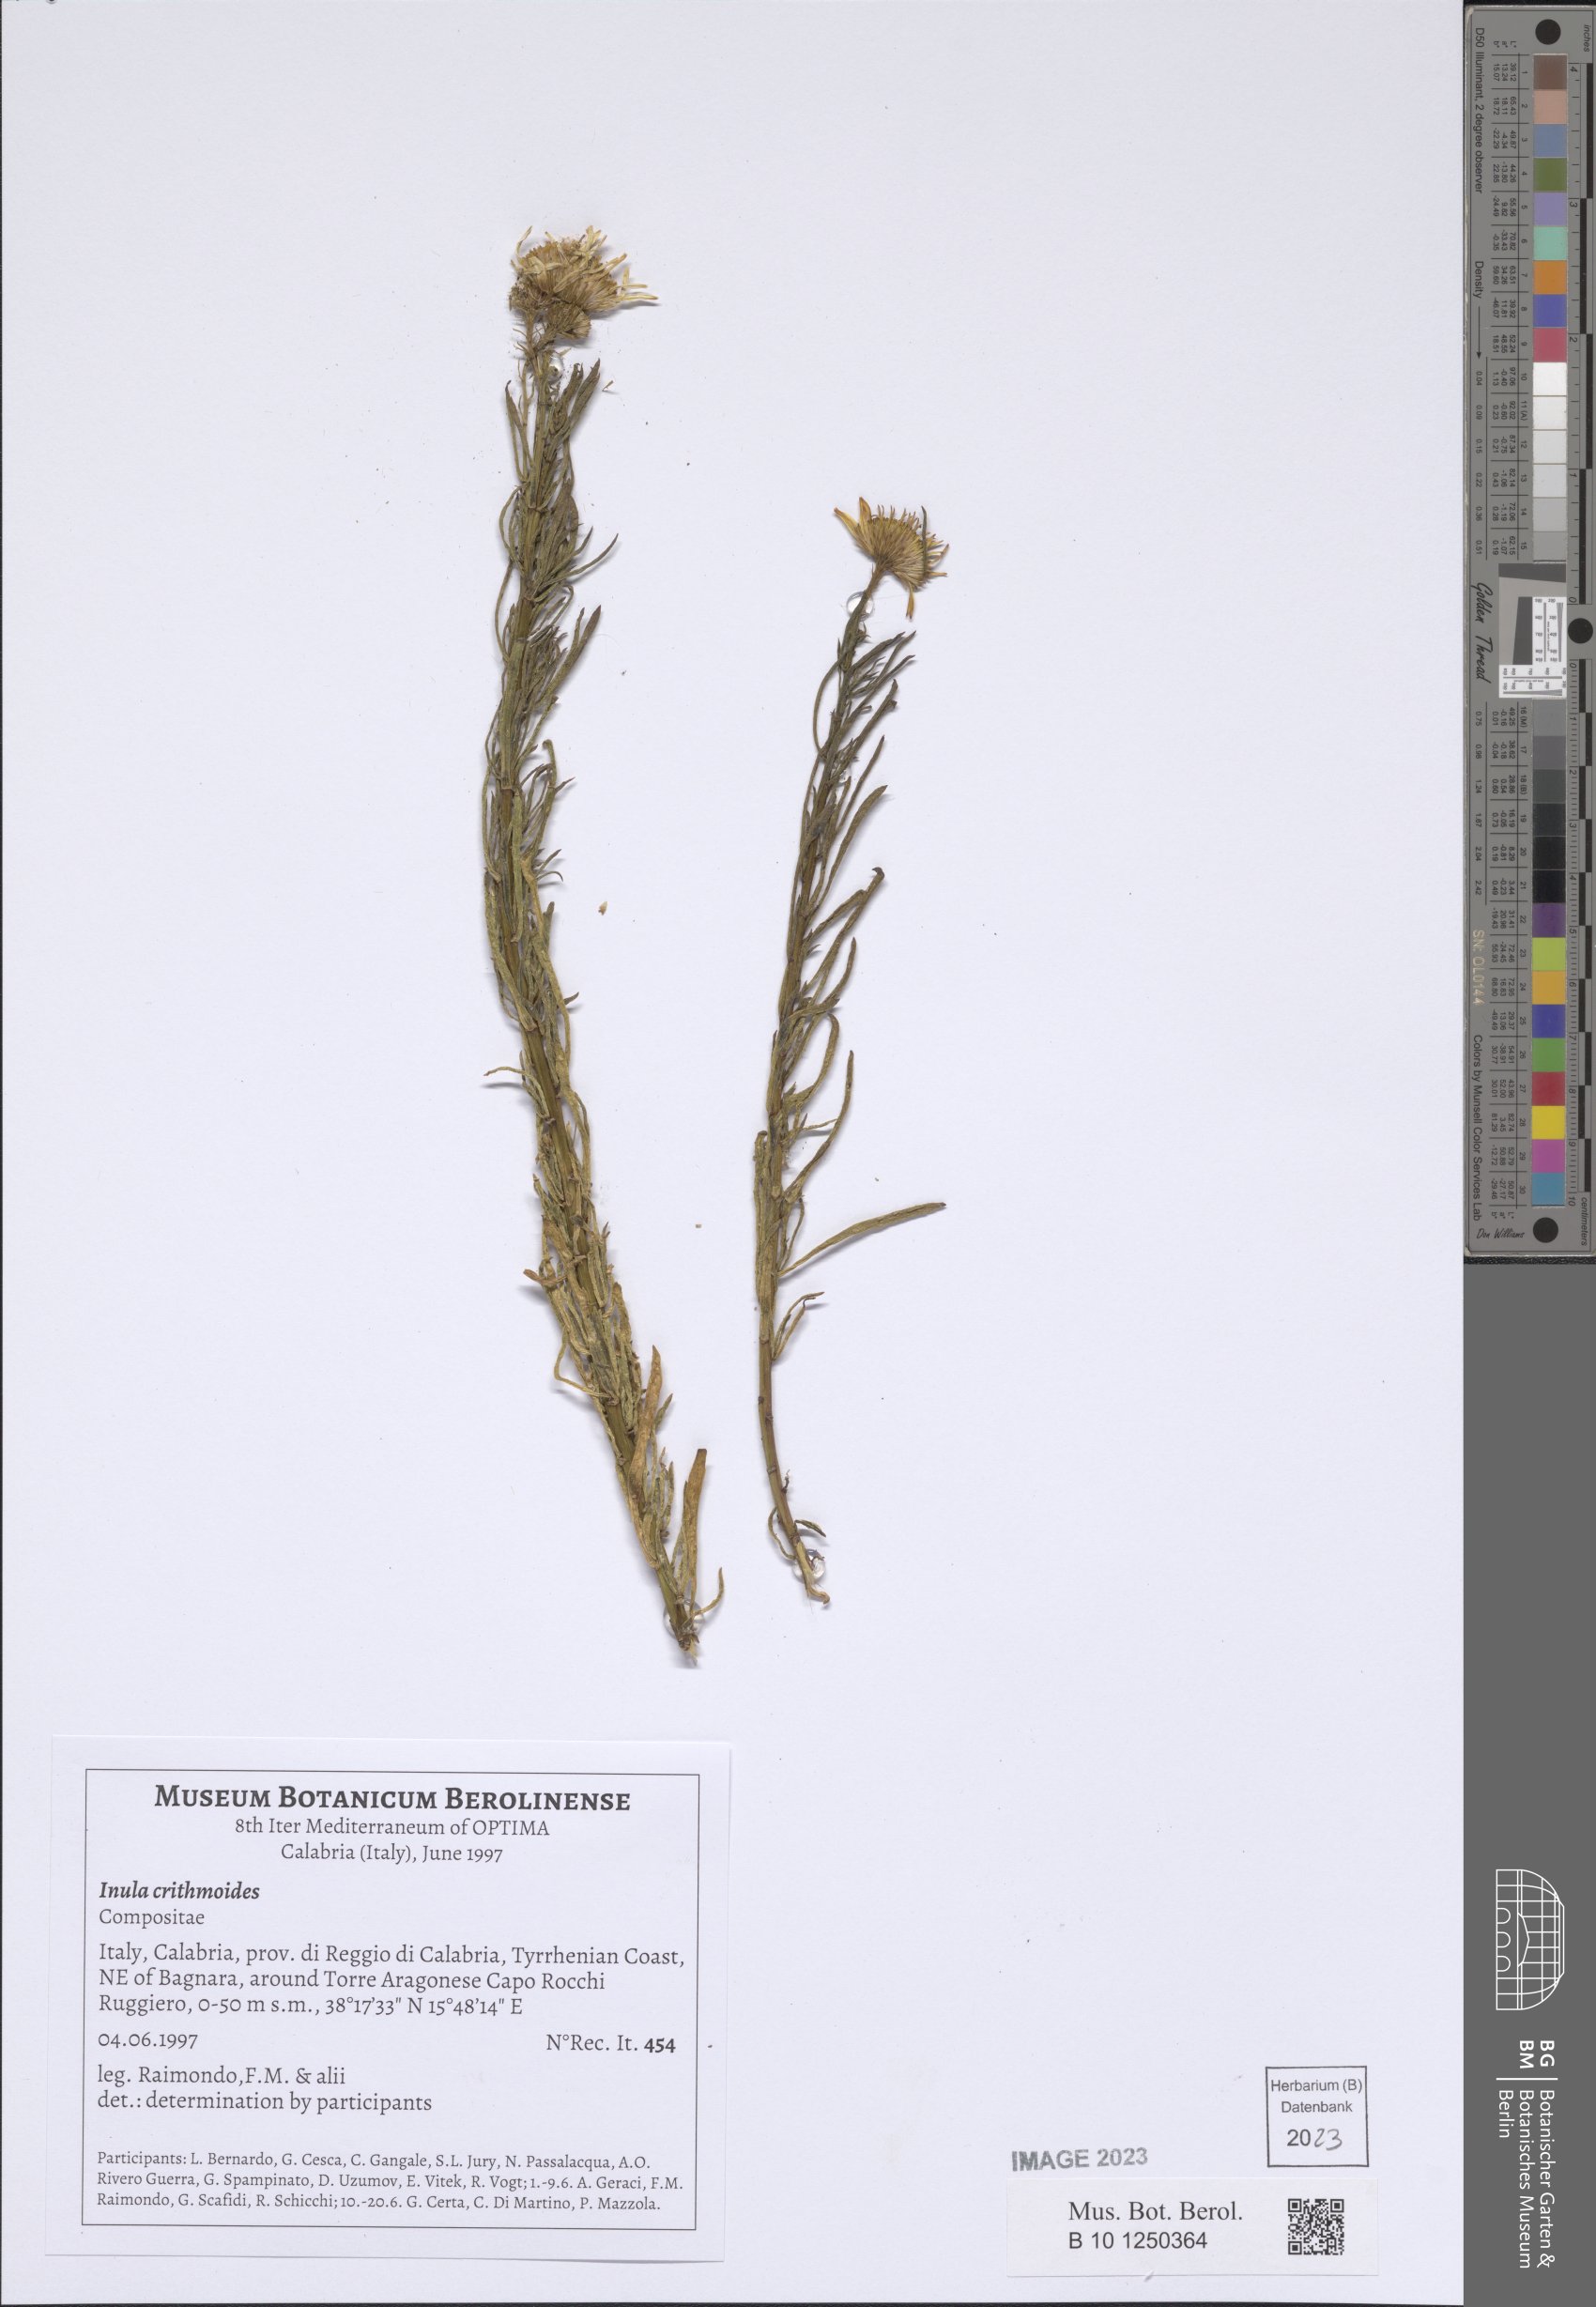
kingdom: Plantae
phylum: Tracheophyta
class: Magnoliopsida
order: Asterales
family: Asteraceae
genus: Limbarda
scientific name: Limbarda crithmoides
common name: Golden samphire
